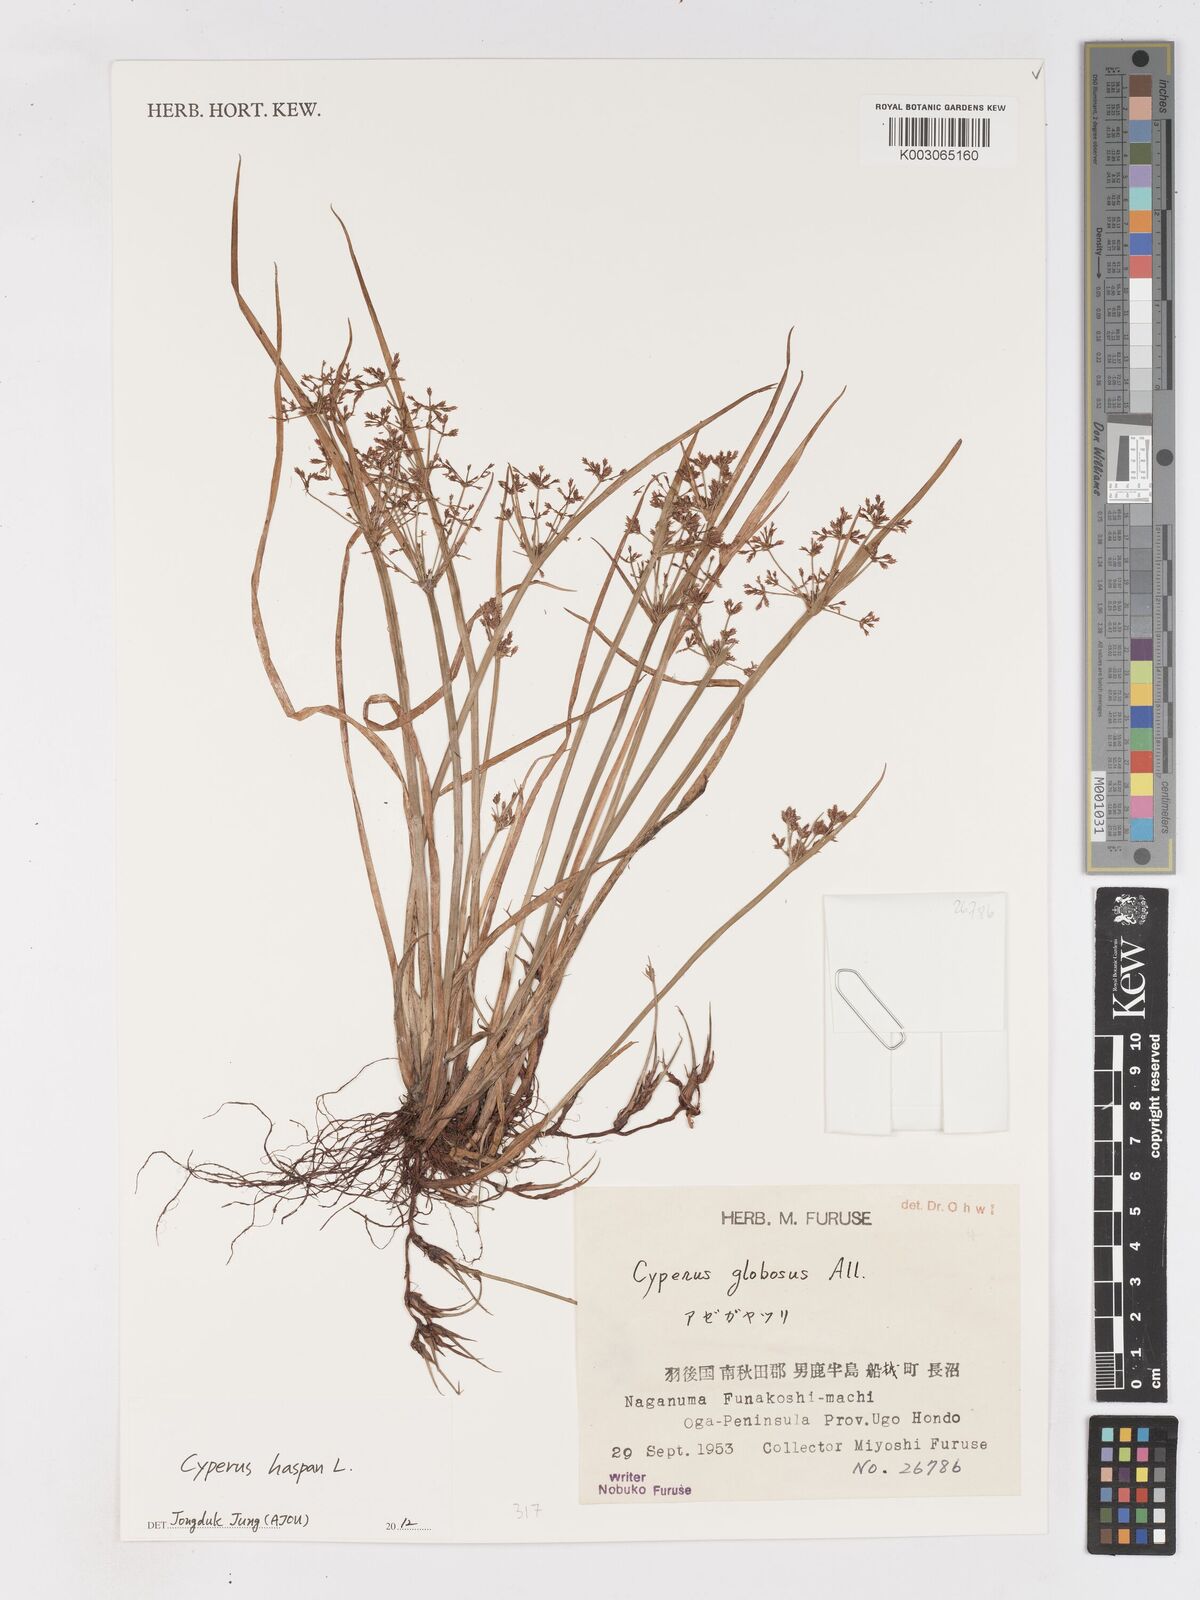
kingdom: Plantae
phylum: Tracheophyta
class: Liliopsida
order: Poales
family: Cyperaceae
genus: Cyperus
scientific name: Cyperus haspan
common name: Haspan flatsedge
